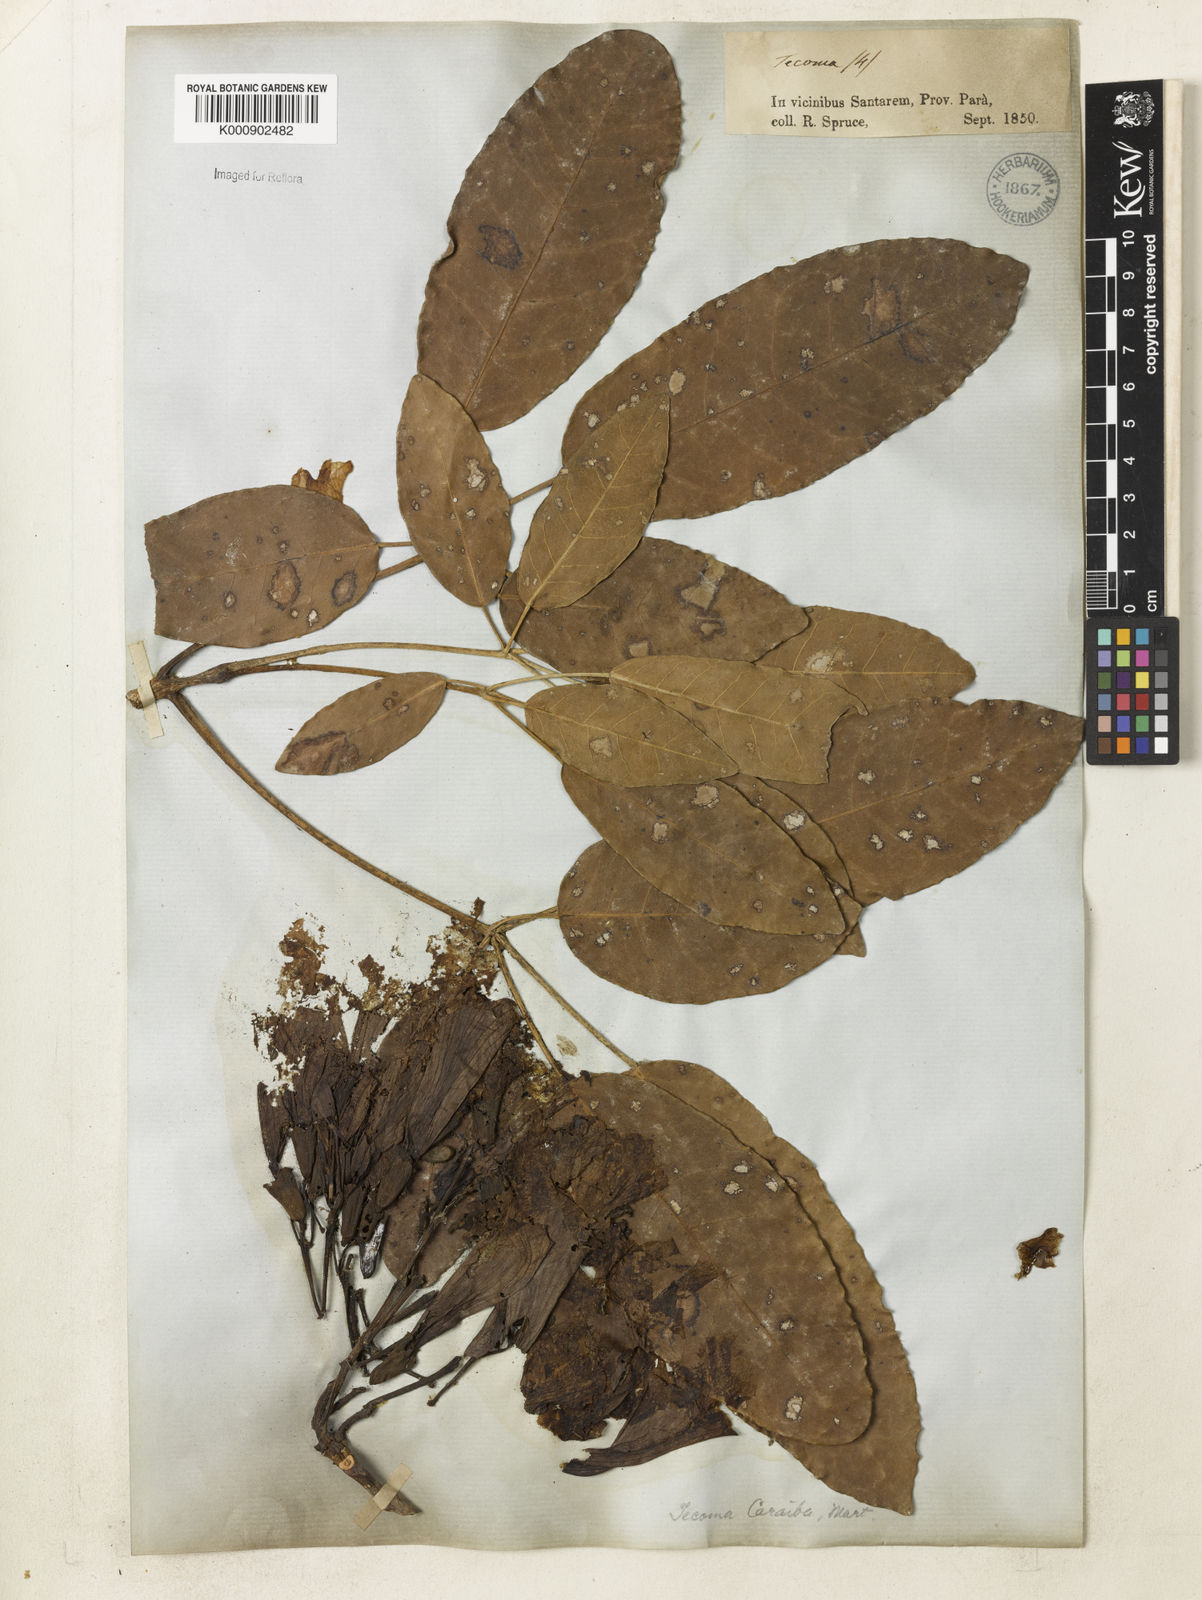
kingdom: Plantae
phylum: Tracheophyta
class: Magnoliopsida
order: Lamiales
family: Bignoniaceae
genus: Tabebuia
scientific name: Tabebuia aurea
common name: Caribbean trumpet-tree
